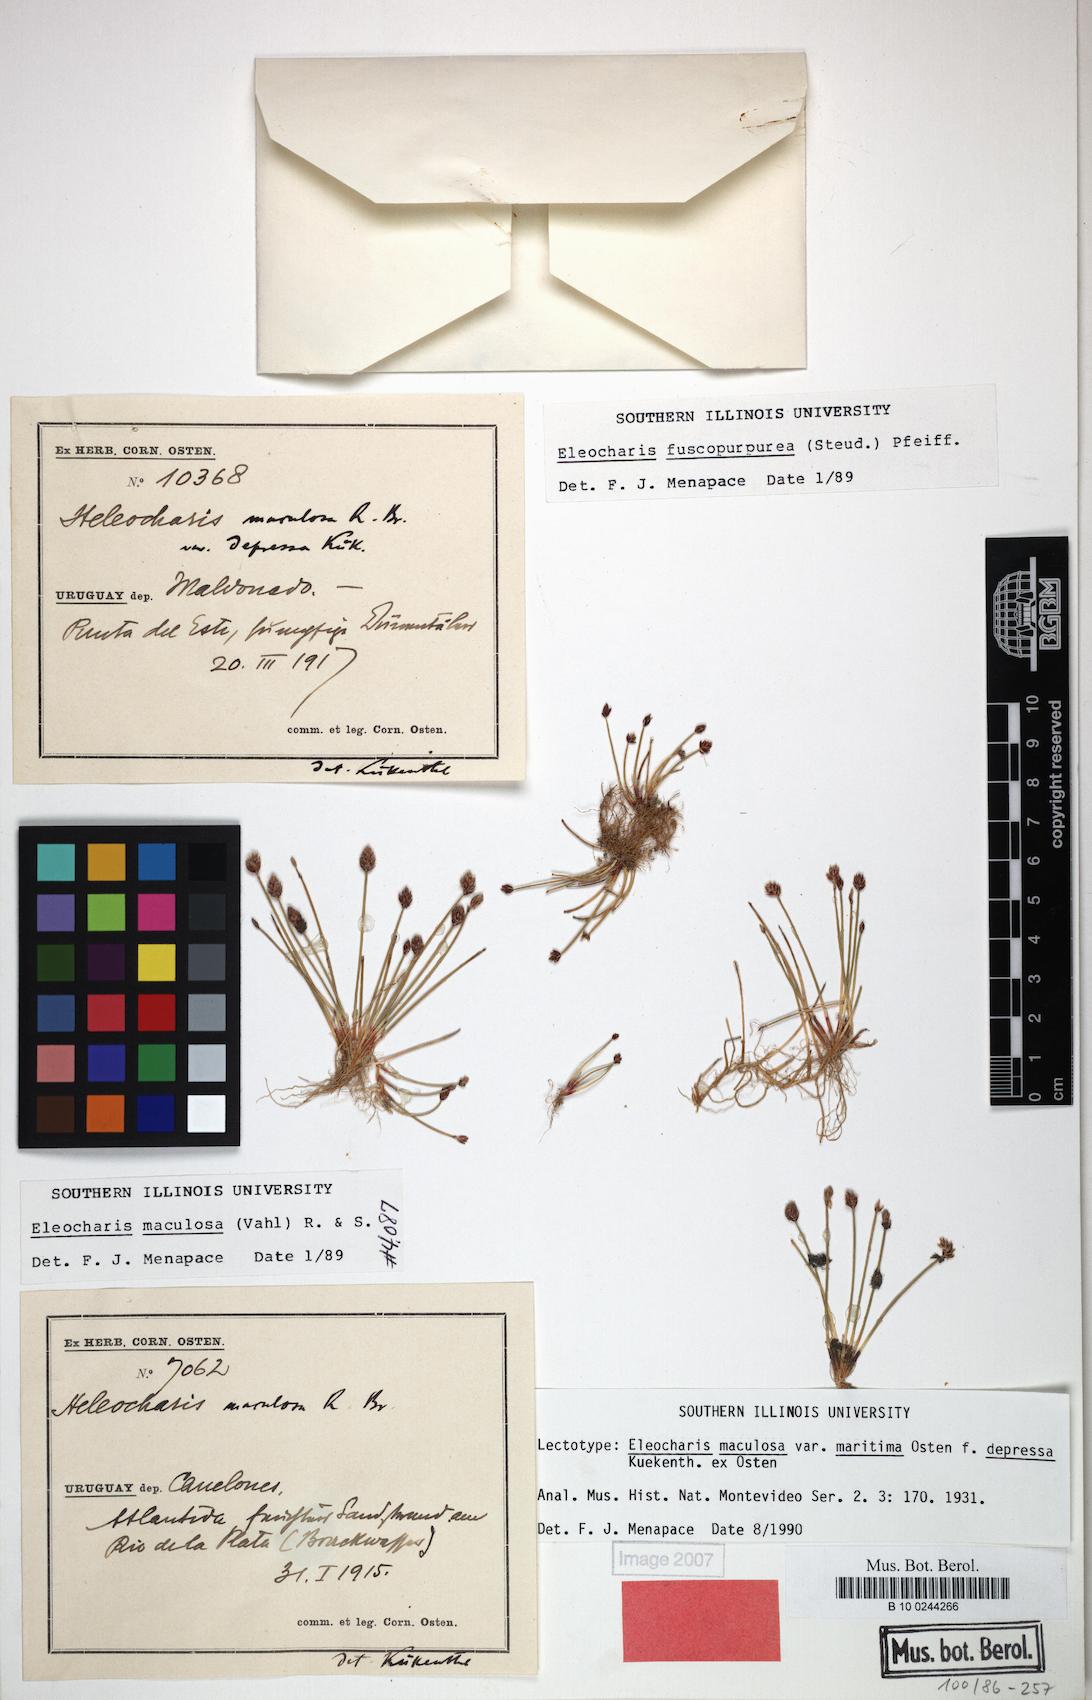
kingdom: Plantae
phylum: Tracheophyta
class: Liliopsida
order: Poales
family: Cyperaceae
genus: Eleocharis
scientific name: Eleocharis maculosa
